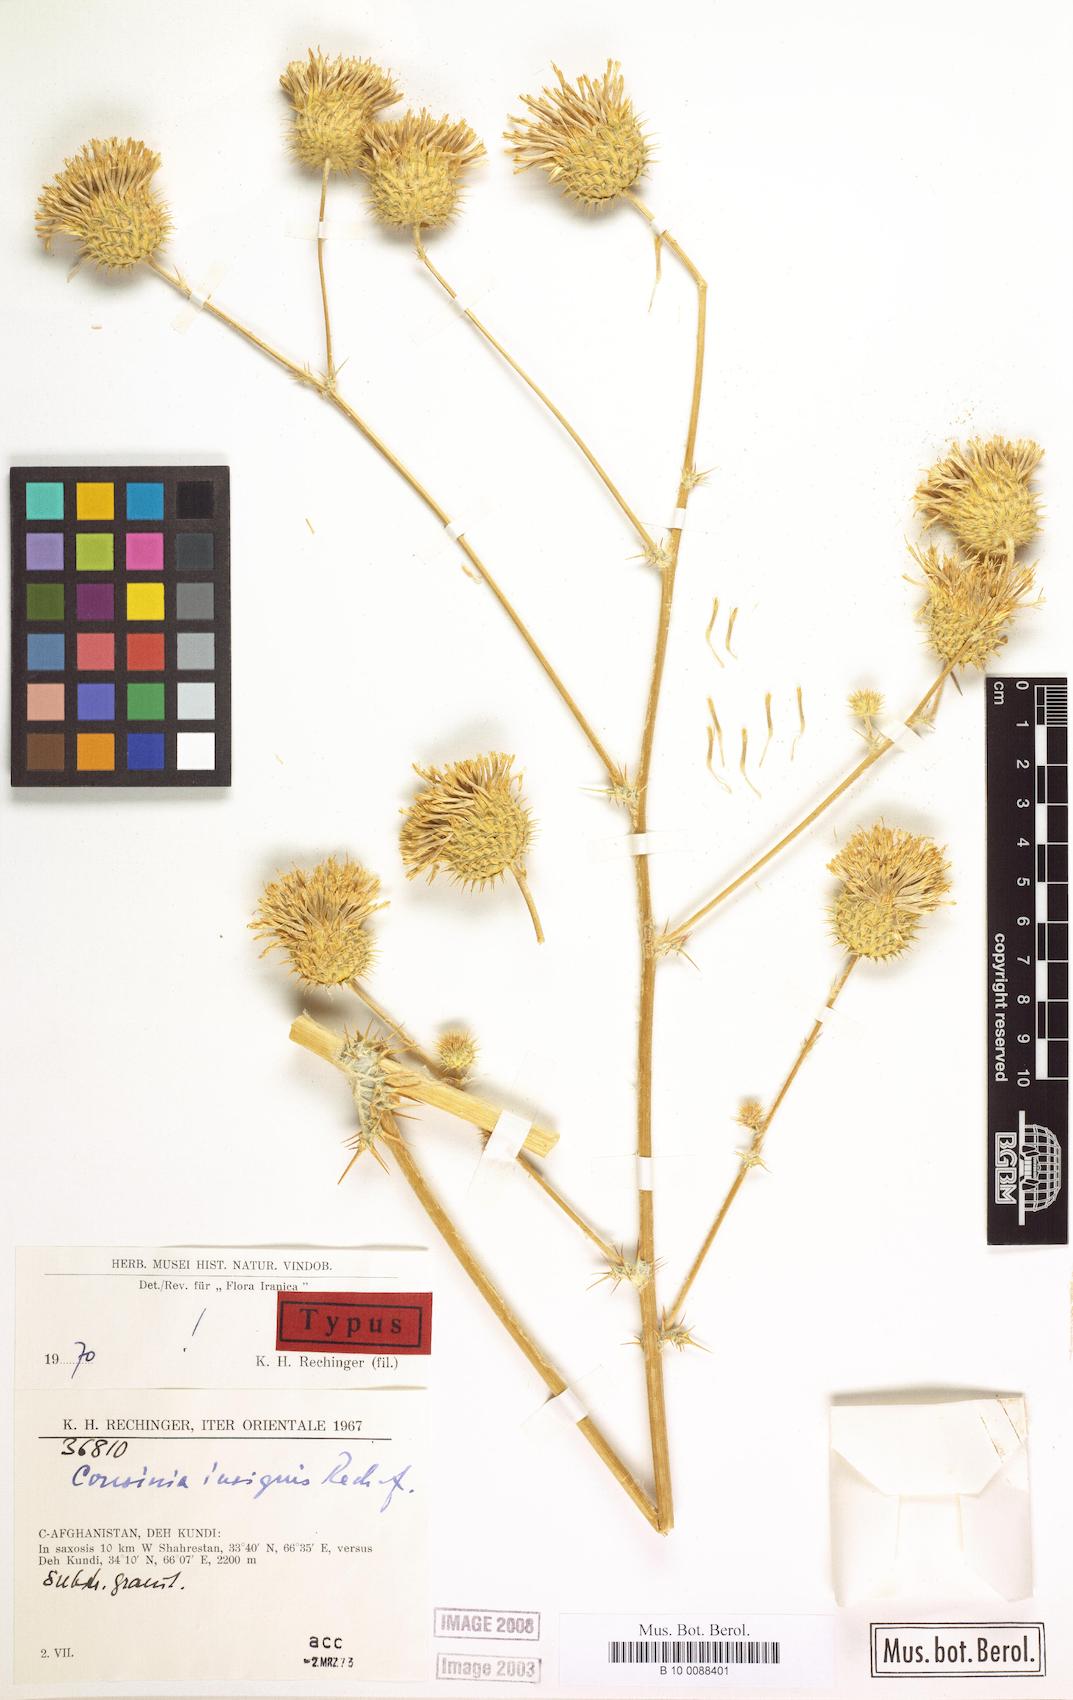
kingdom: Plantae
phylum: Tracheophyta
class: Magnoliopsida
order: Asterales
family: Asteraceae
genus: Cousinia
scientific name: Cousinia insignis
